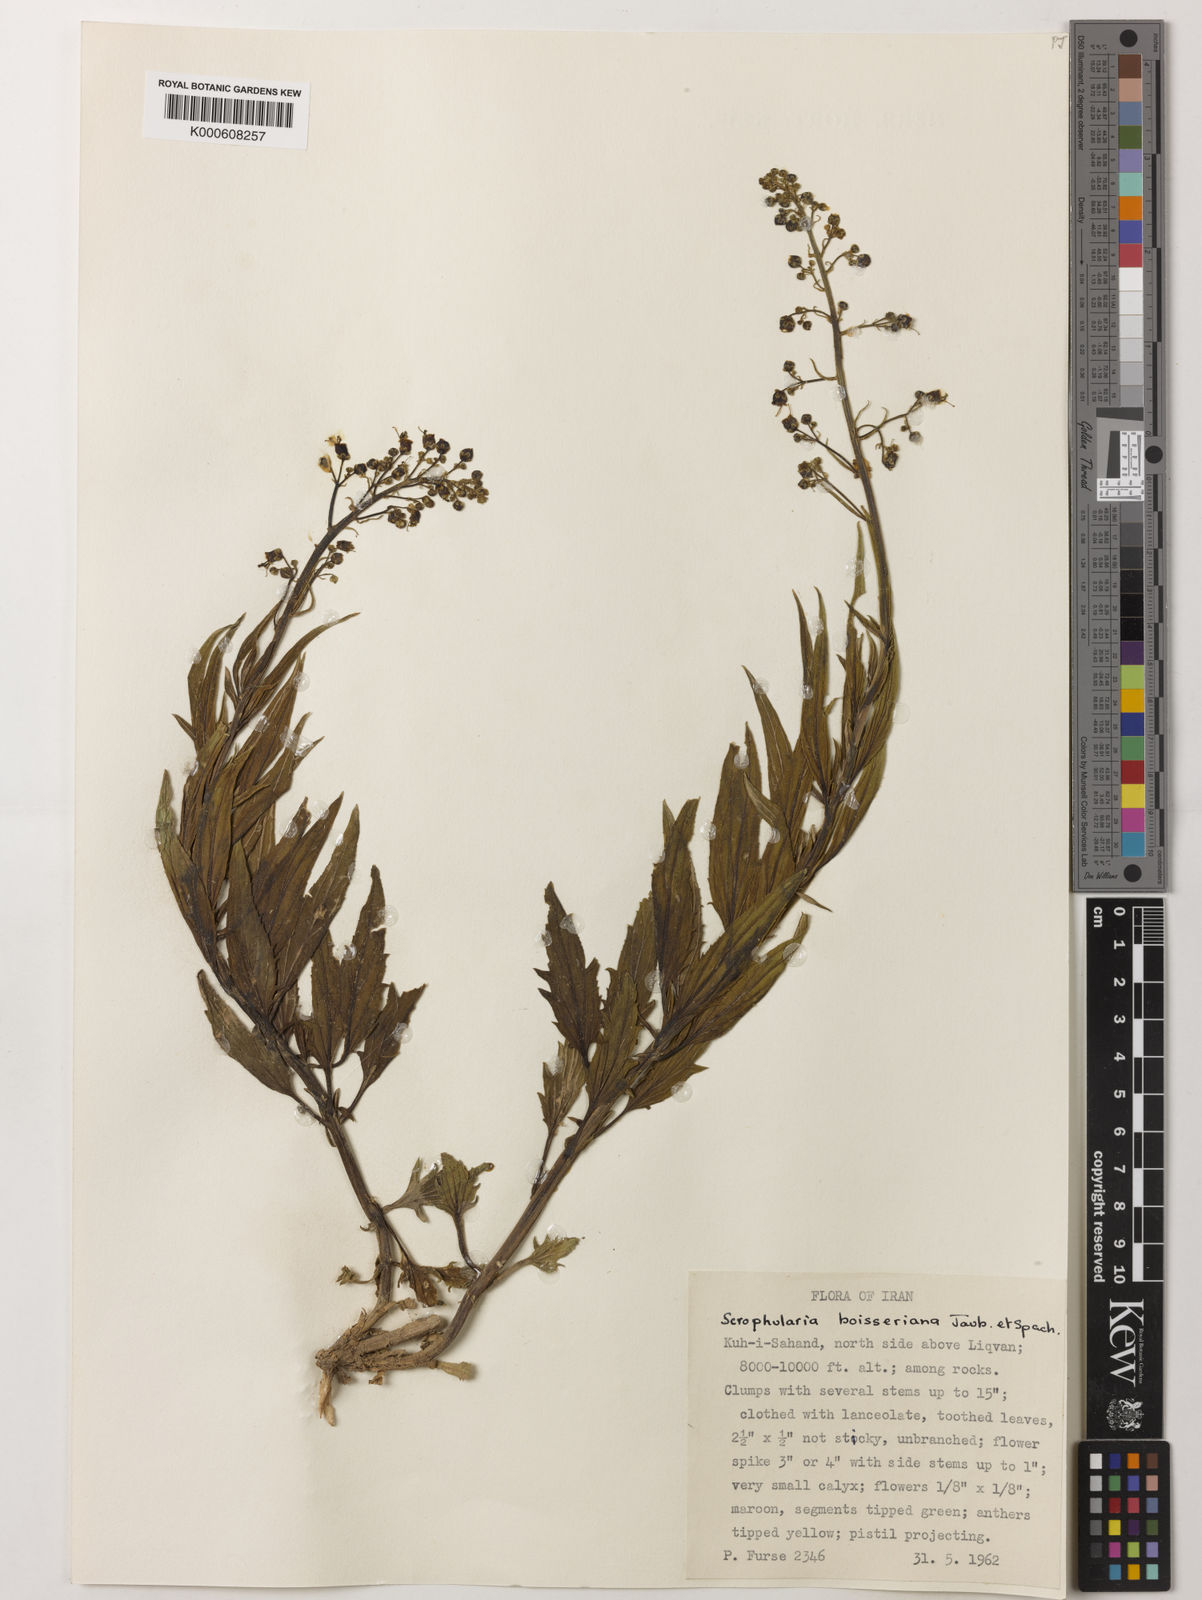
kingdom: Plantae
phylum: Tracheophyta
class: Magnoliopsida
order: Lamiales
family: Scrophulariaceae
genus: Scrophularia
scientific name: Scrophularia nervosa
